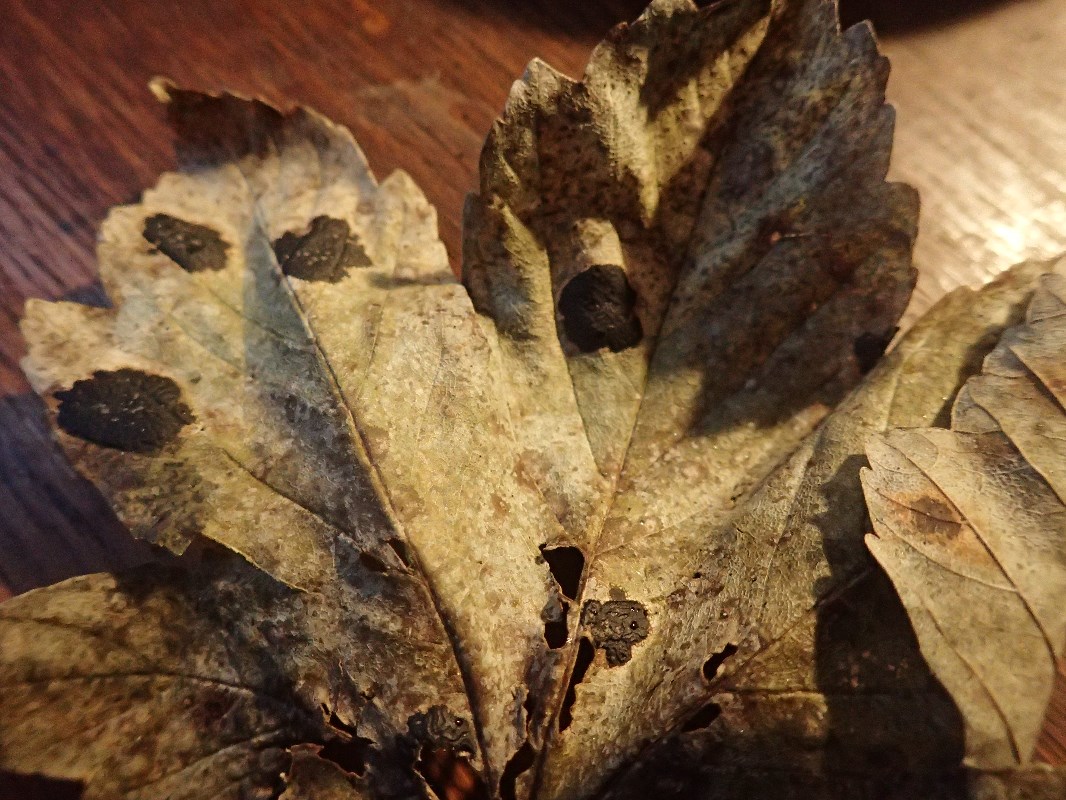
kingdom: Fungi
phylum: Ascomycota
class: Leotiomycetes
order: Rhytismatales
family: Rhytismataceae
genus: Rhytisma
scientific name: Rhytisma acerinum
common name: ahorn-rynkeplet
